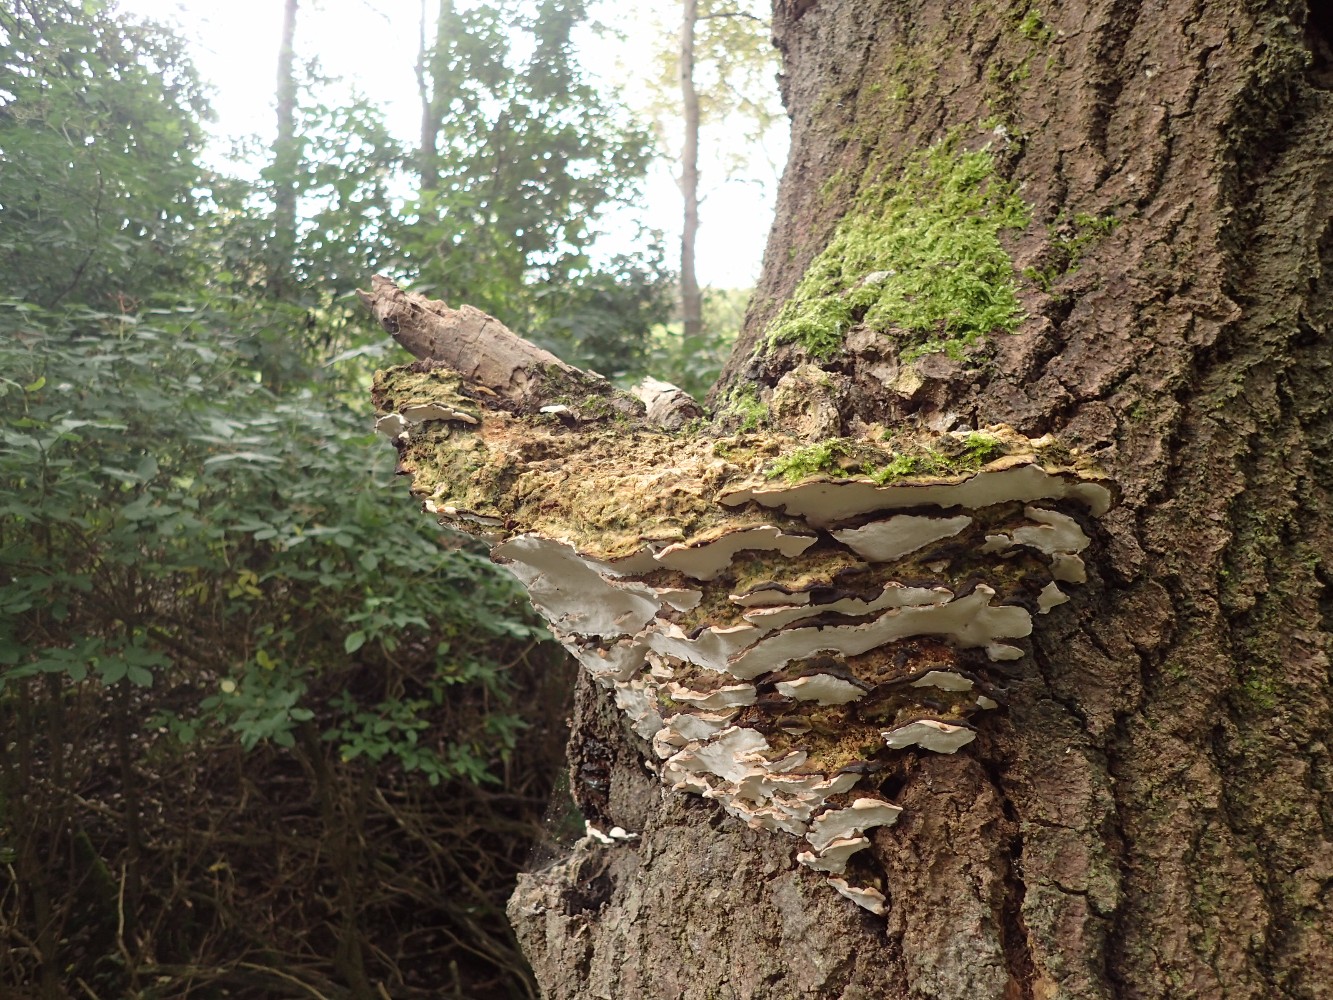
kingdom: Fungi
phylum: Basidiomycota
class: Agaricomycetes
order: Hymenochaetales
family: Oxyporaceae
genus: Oxyporus
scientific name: Oxyporus populinus
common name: sammenvokset trylleporesvamp
